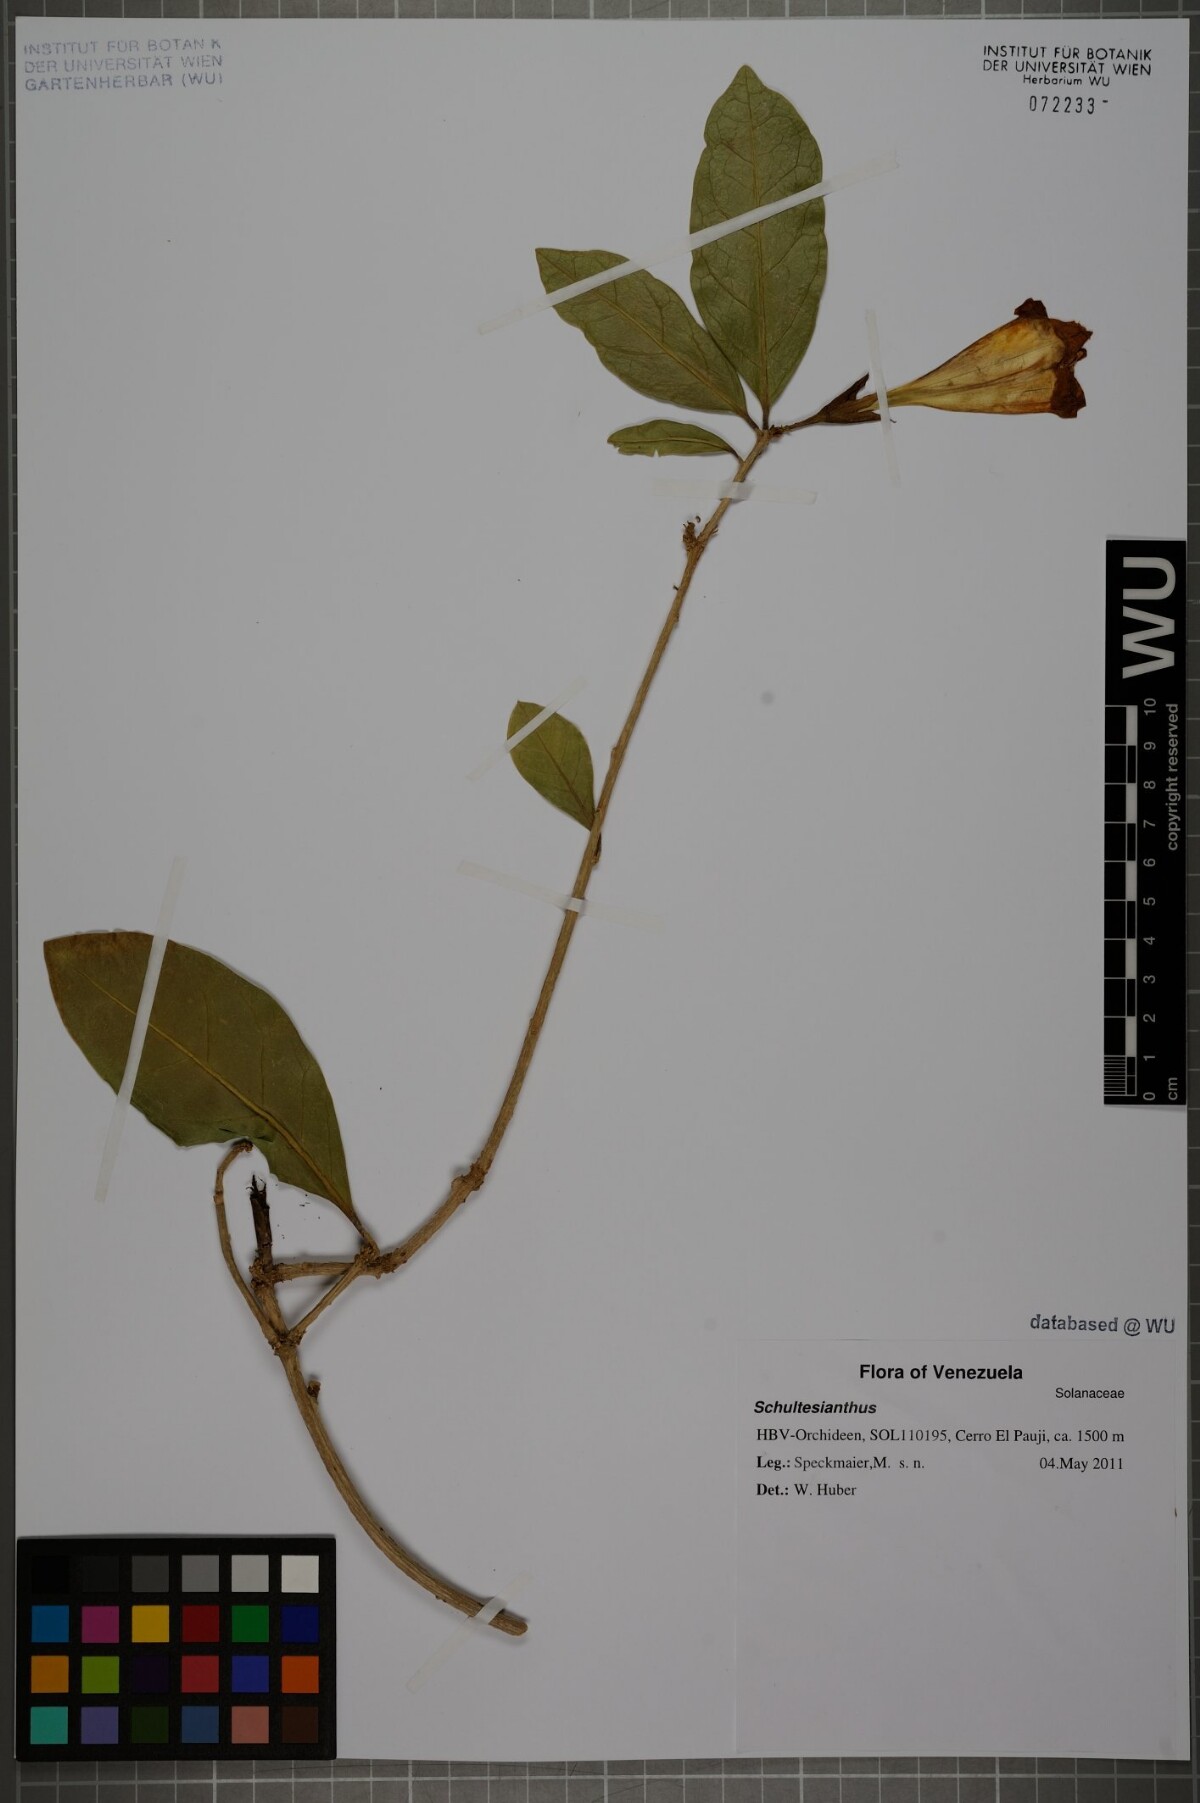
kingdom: Plantae
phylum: Tracheophyta
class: Magnoliopsida
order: Solanales
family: Solanaceae
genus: Schultesianthus
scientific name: Schultesianthus
